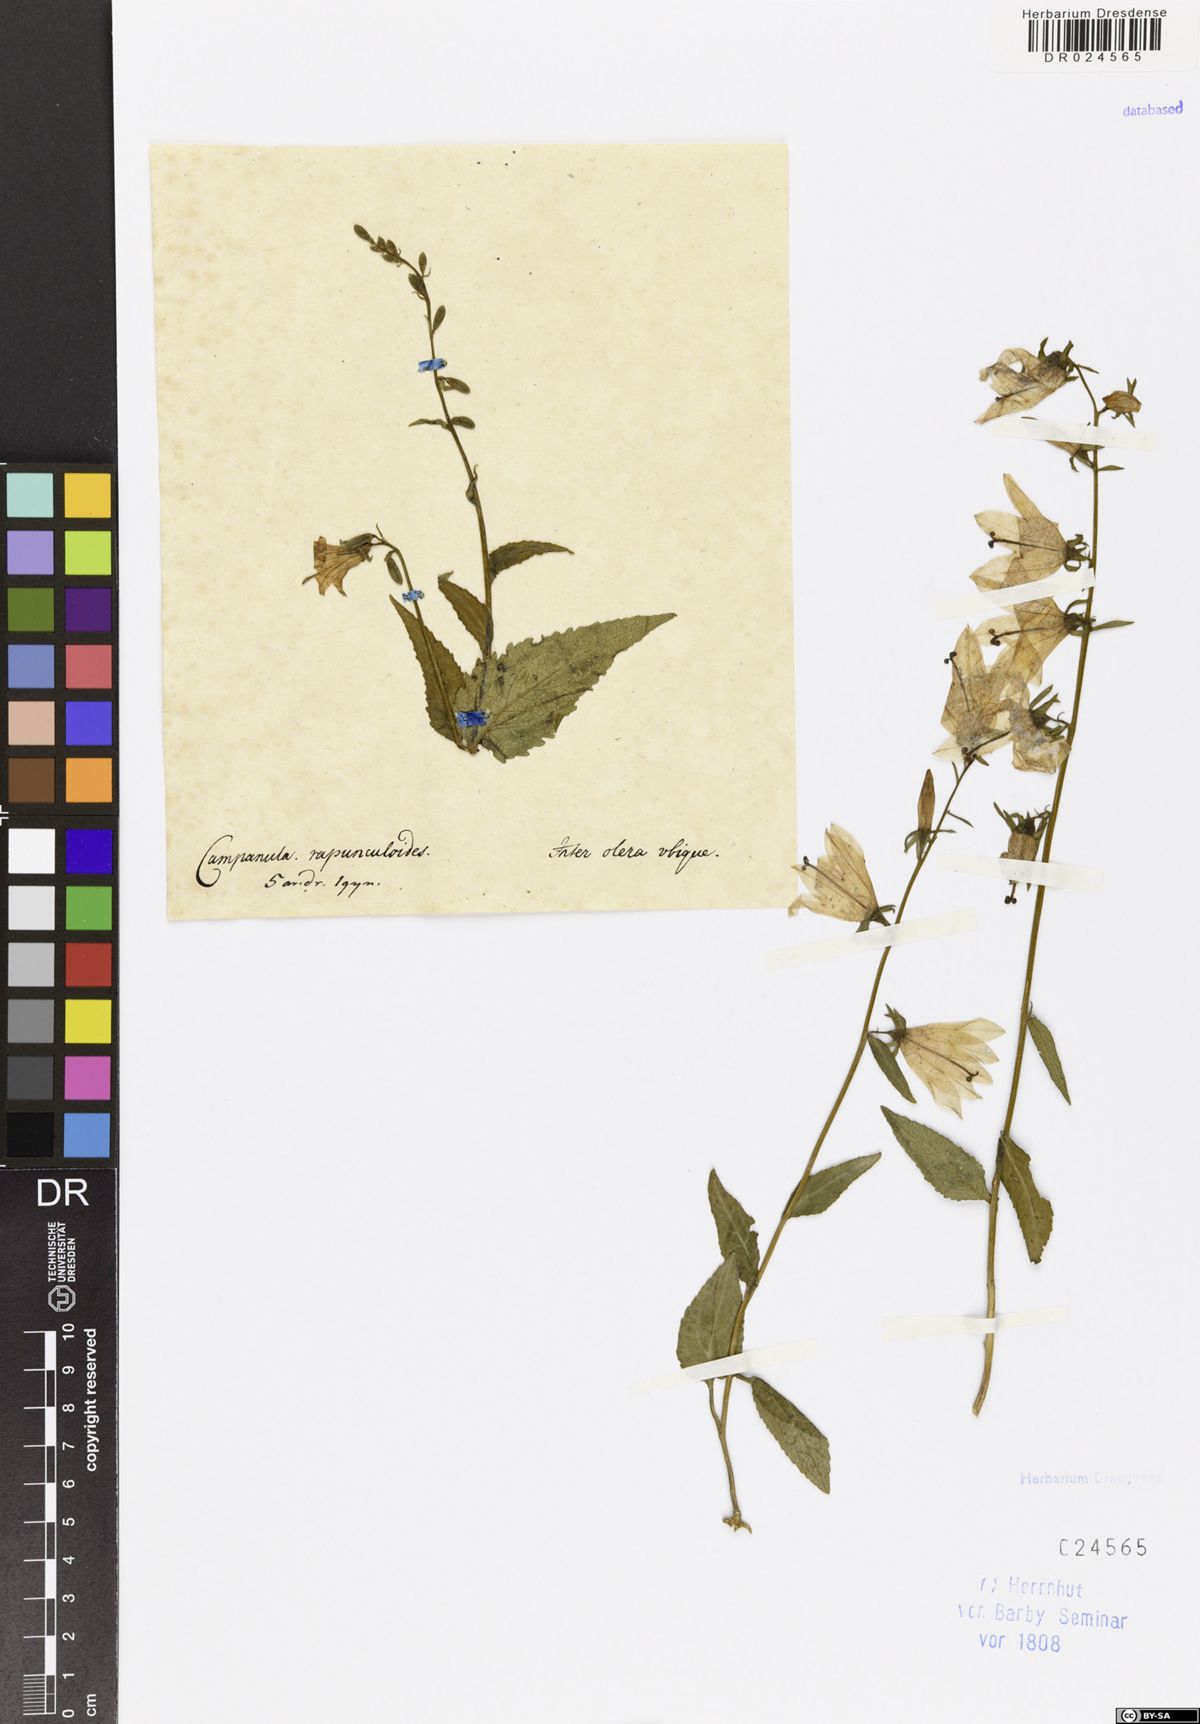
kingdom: Plantae
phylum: Tracheophyta
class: Magnoliopsida
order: Asterales
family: Campanulaceae
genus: Campanula
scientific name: Campanula rapunculoides
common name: Creeping bellflower
